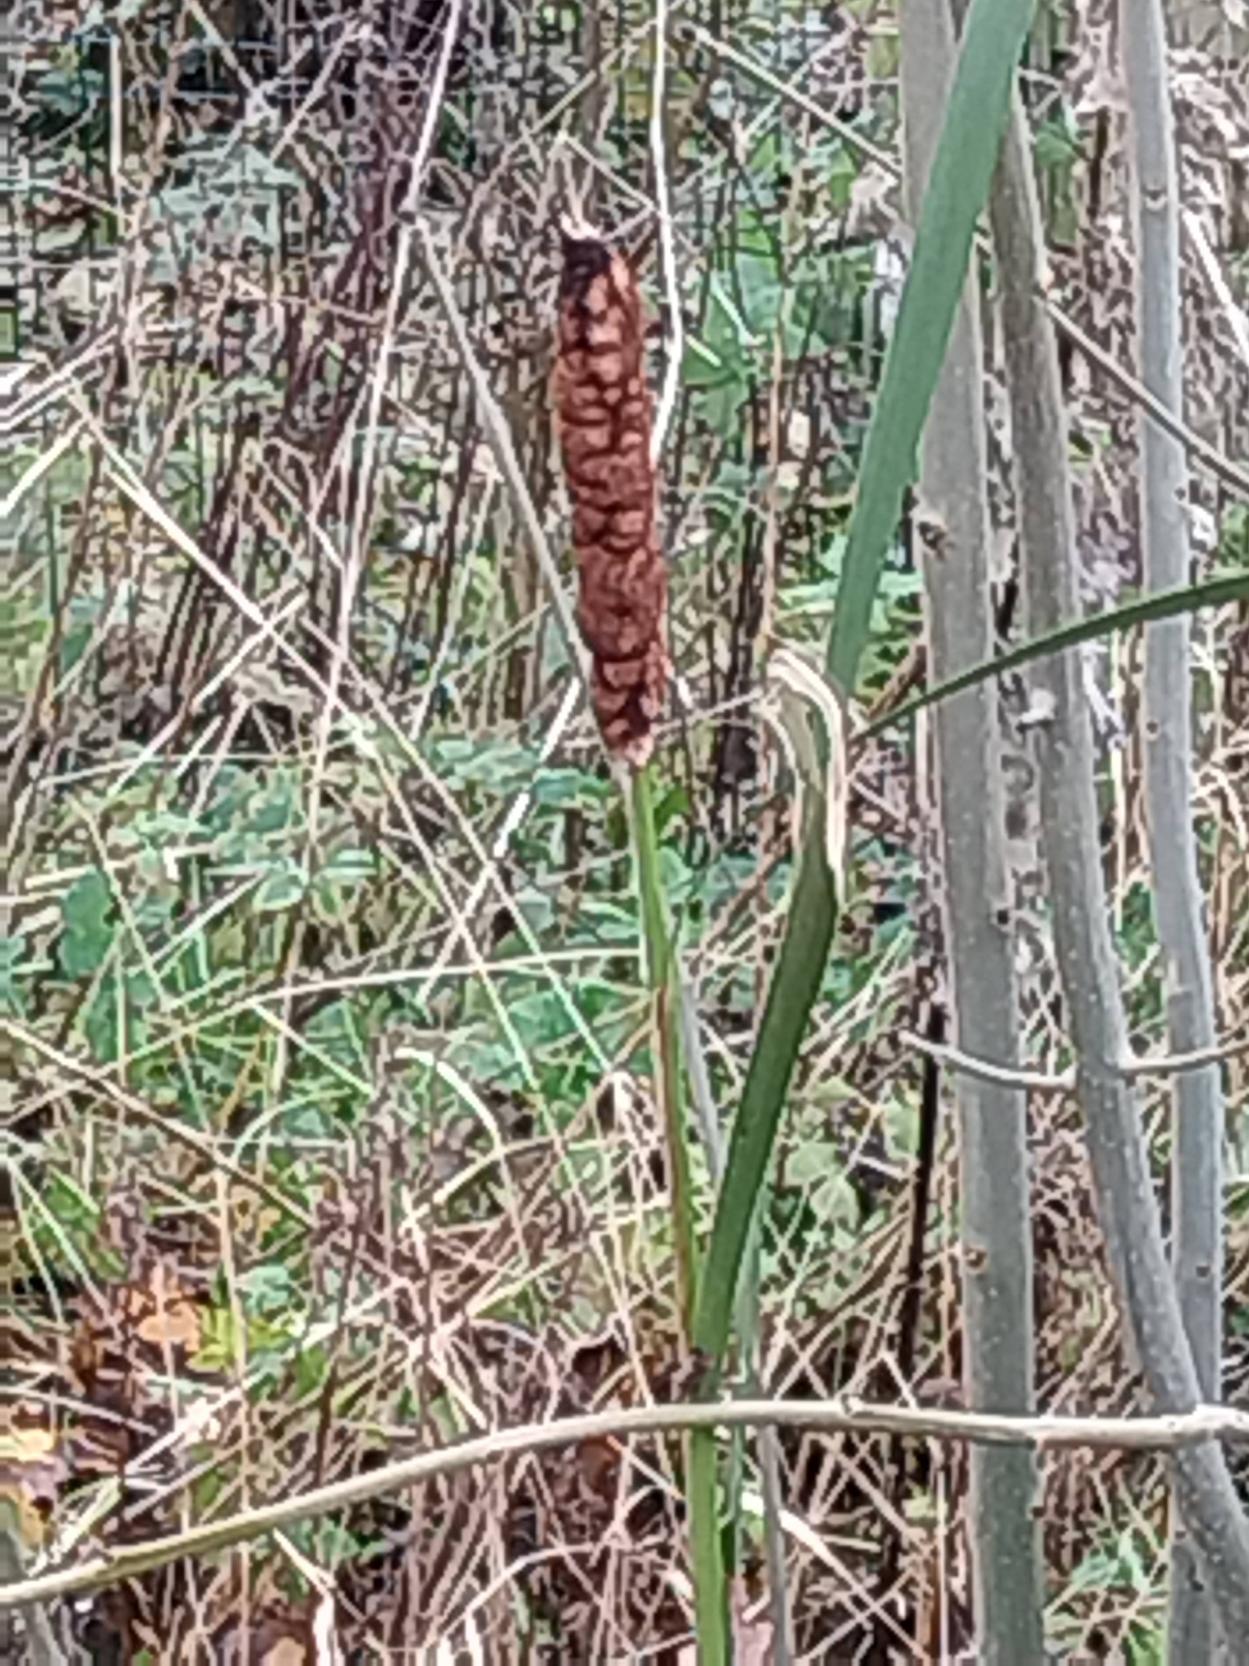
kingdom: Plantae
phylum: Tracheophyta
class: Liliopsida
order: Poales
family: Typhaceae
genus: Typha
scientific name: Typha latifolia
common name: Bredbladet dunhammer
